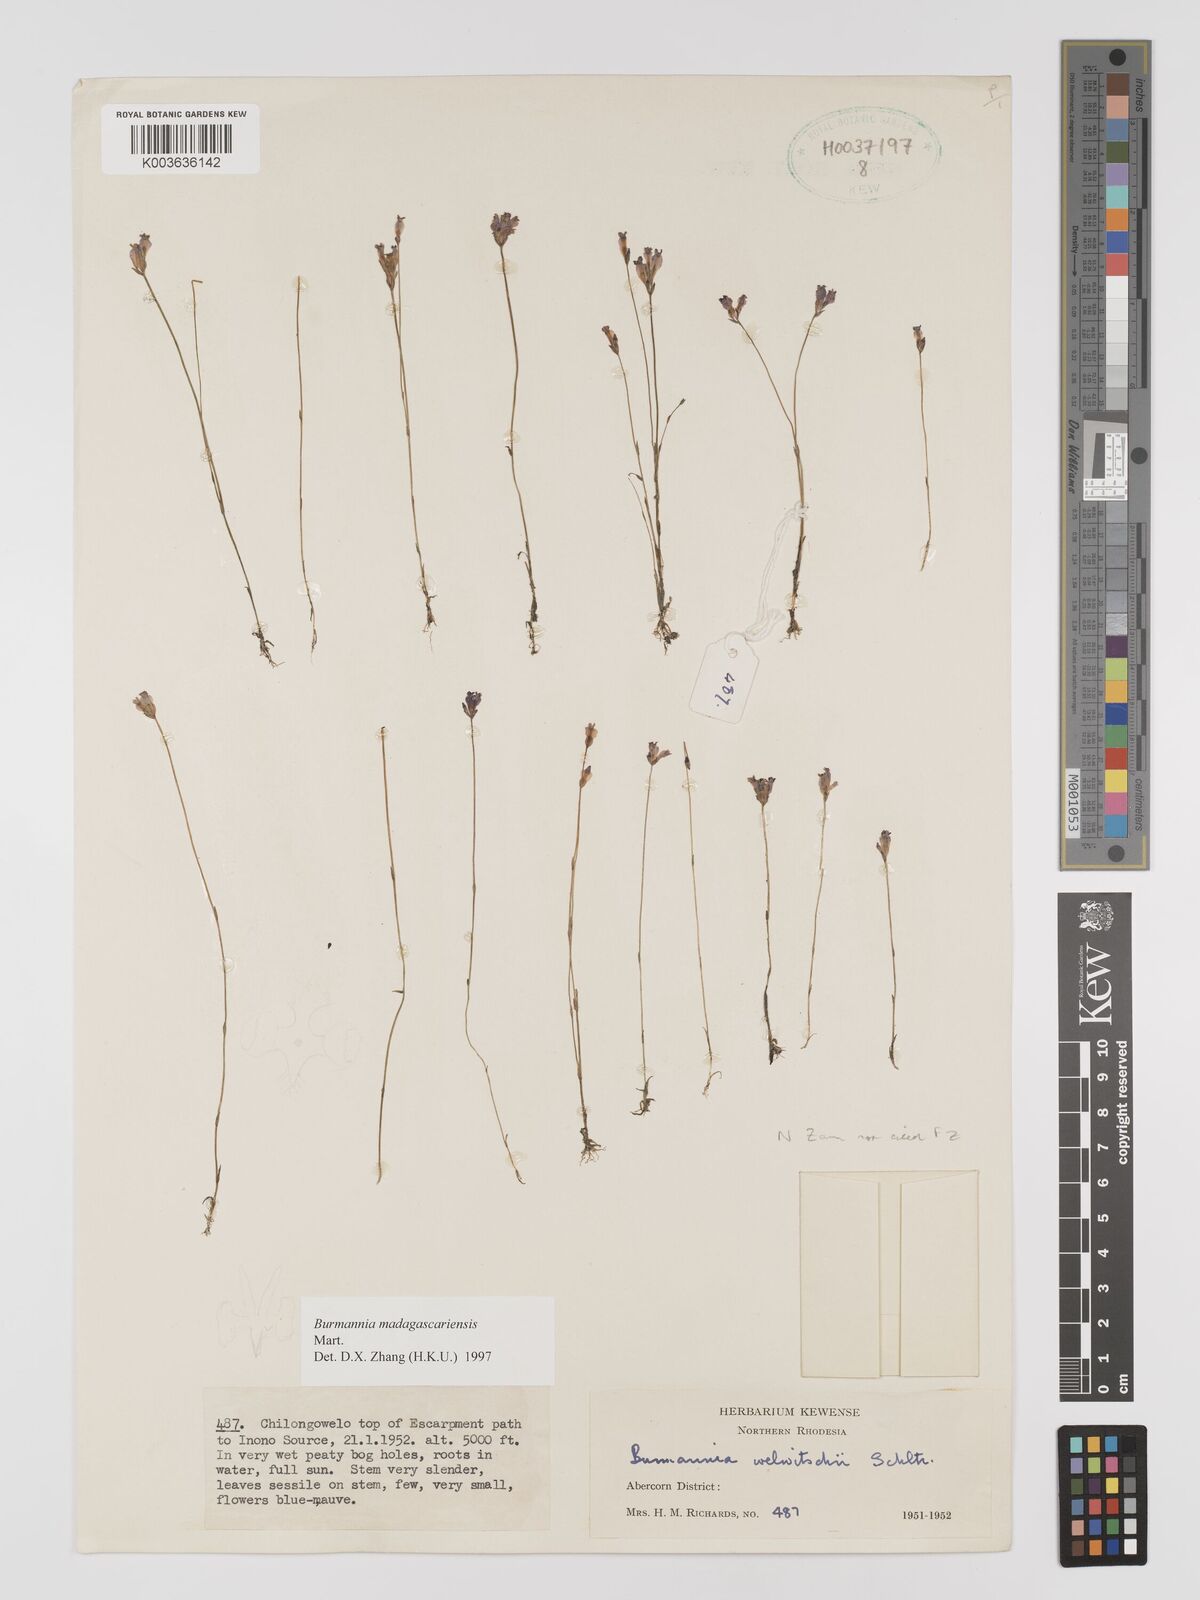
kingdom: Plantae
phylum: Tracheophyta
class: Liliopsida
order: Dioscoreales
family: Burmanniaceae
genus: Burmannia
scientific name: Burmannia madagascariensis
